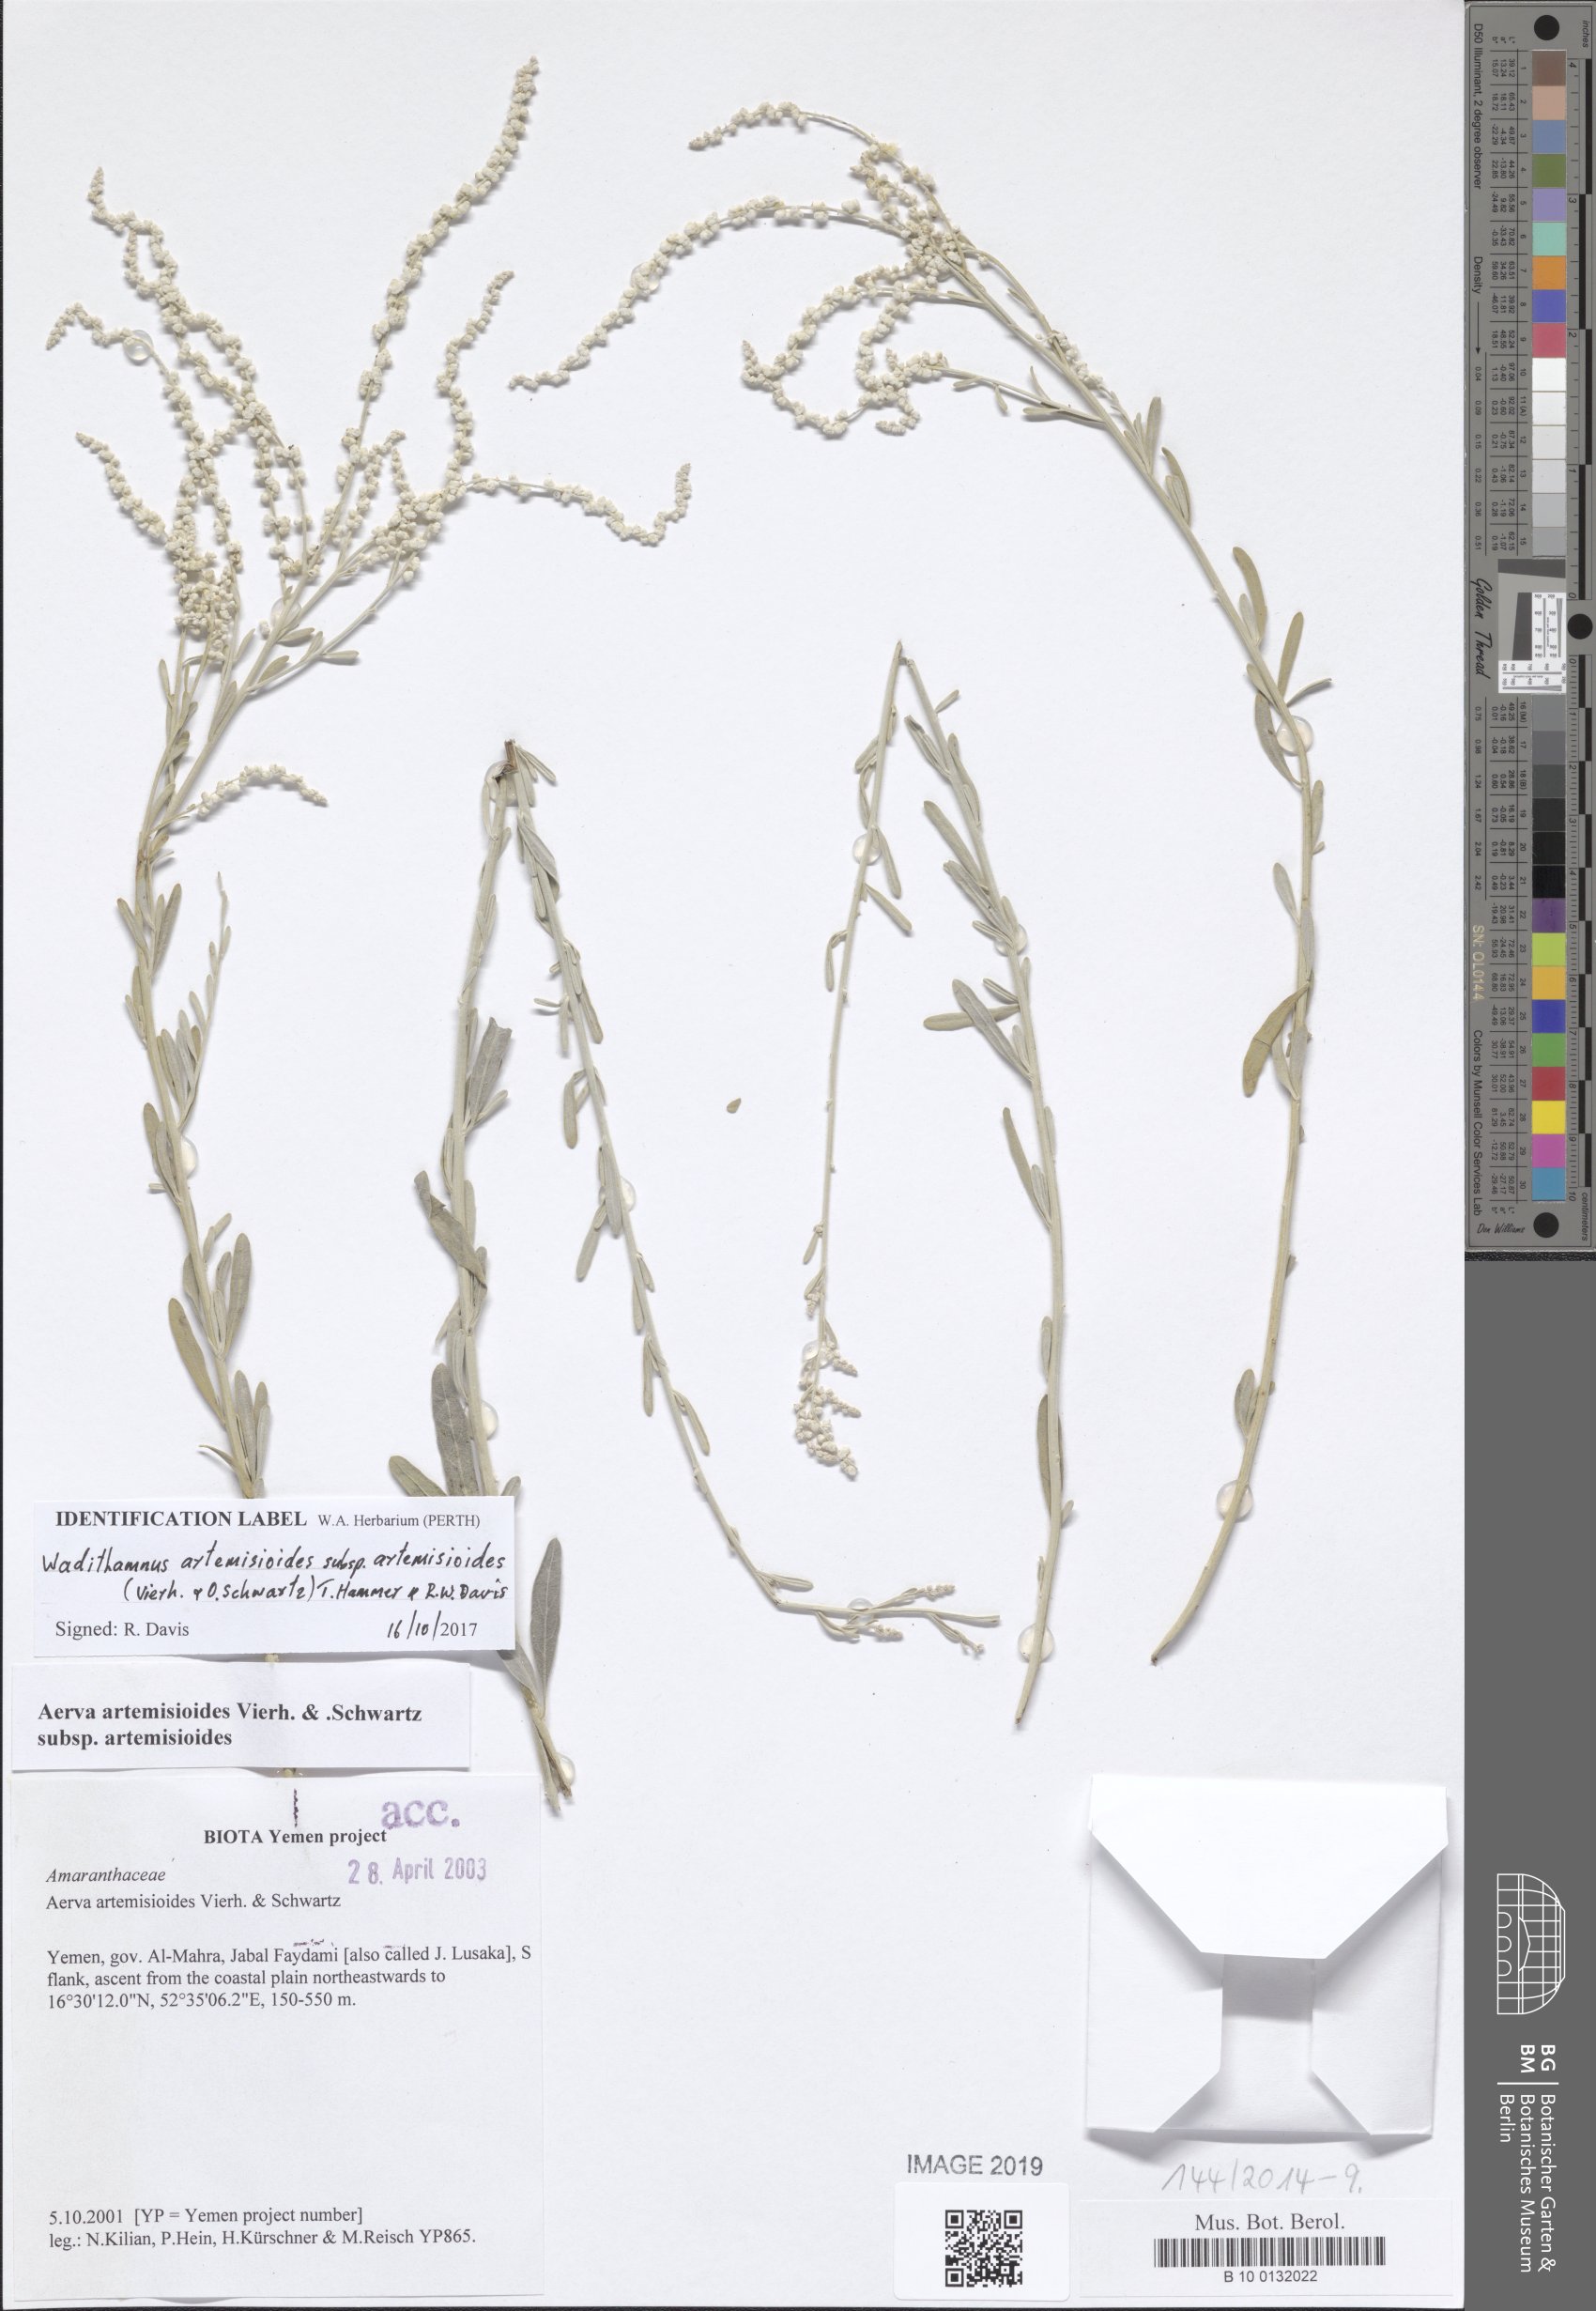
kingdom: Plantae
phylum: Tracheophyta
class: Magnoliopsida
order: Caryophyllales
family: Amaranthaceae
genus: Wadithamnus
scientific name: Wadithamnus artemisioides
